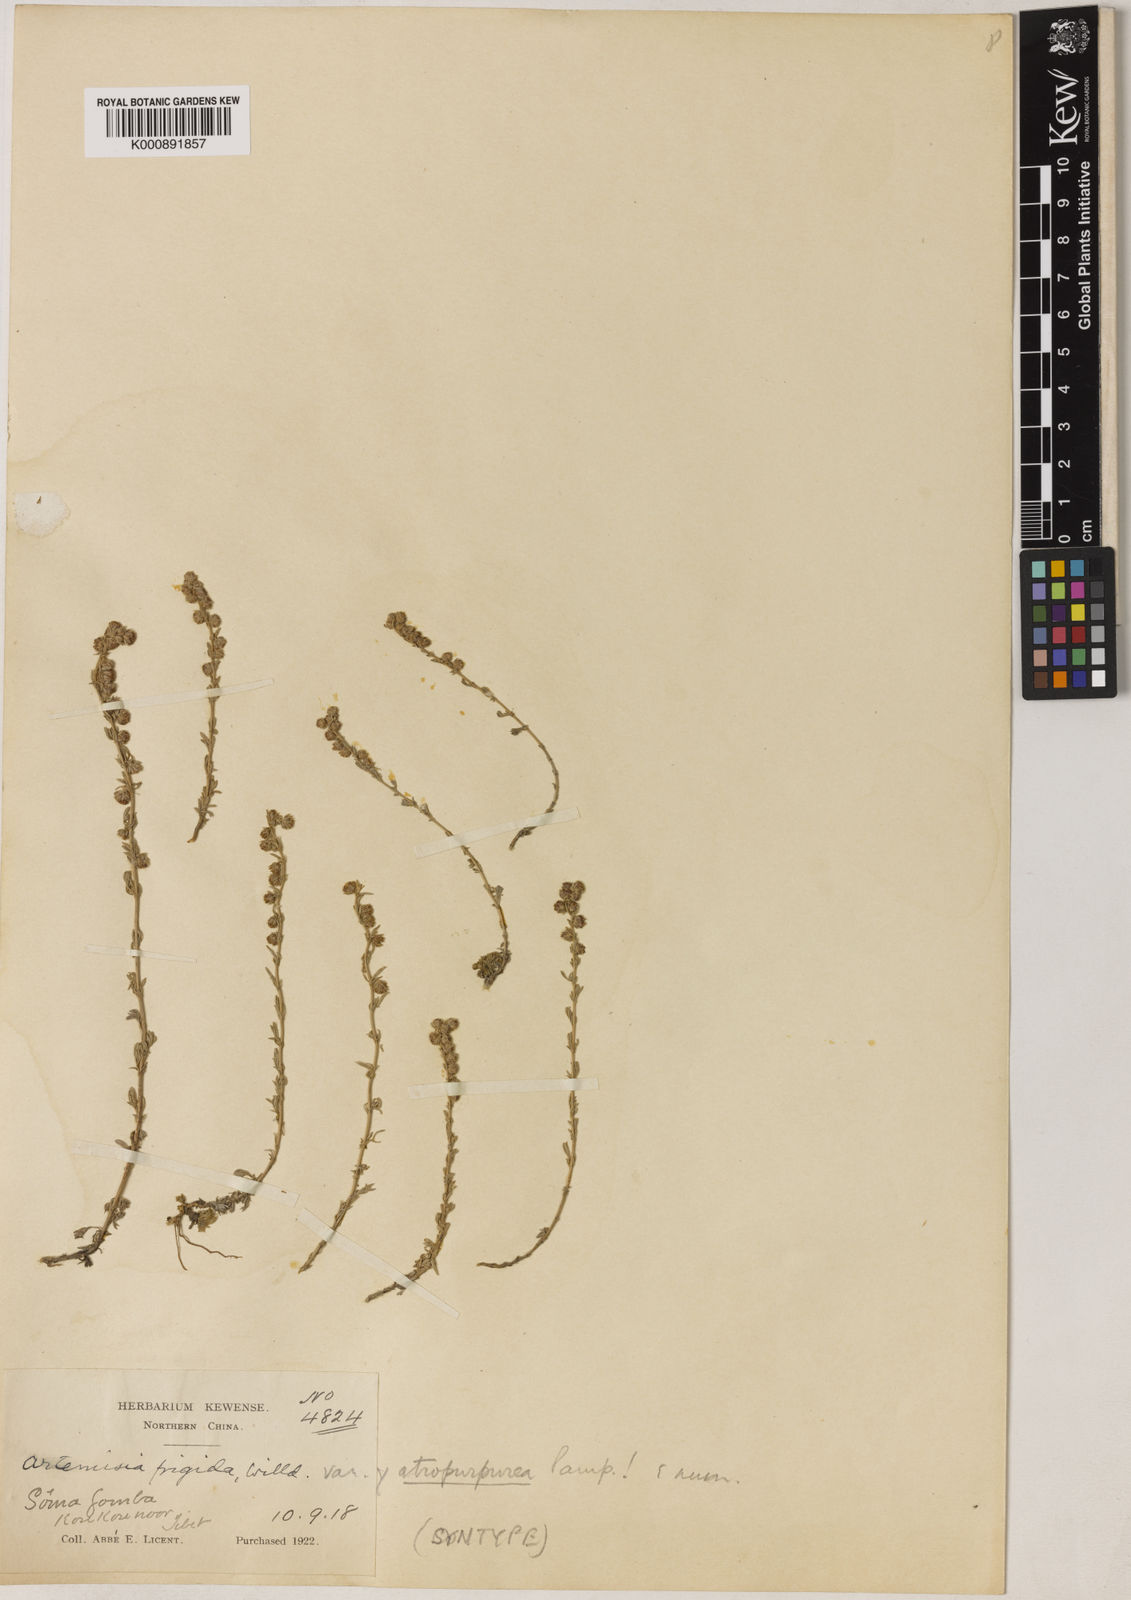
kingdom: Plantae
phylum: Tracheophyta
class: Magnoliopsida
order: Asterales
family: Asteraceae
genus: Artemisia
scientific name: Artemisia frigida
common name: Prairie sagewort
